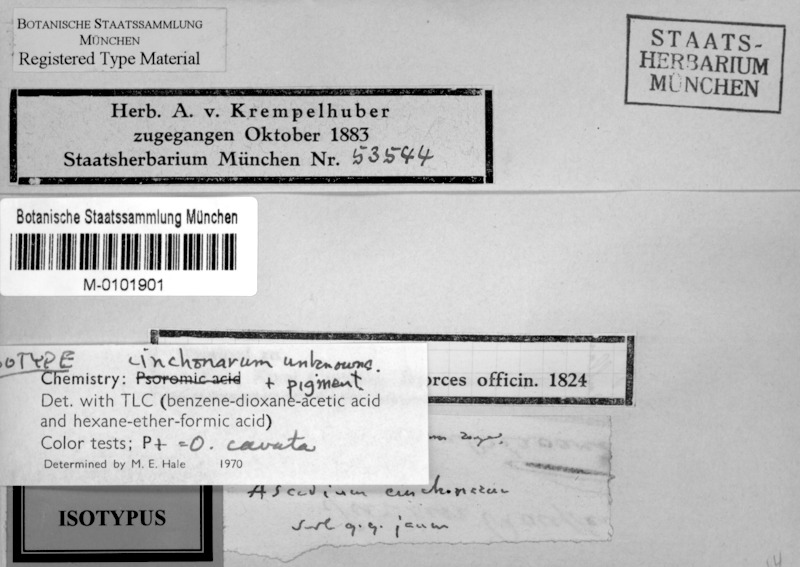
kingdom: Fungi
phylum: Ascomycota
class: Lecanoromycetes
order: Ostropales
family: Graphidaceae
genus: Ocellularia
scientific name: Ocellularia cavata
